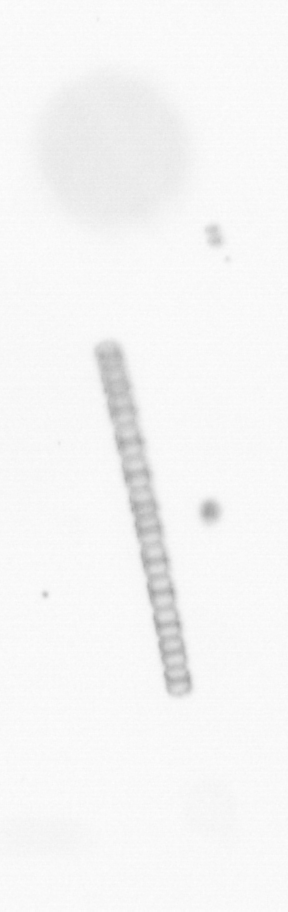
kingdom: Chromista
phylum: Ochrophyta
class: Bacillariophyceae
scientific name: Bacillariophyceae
